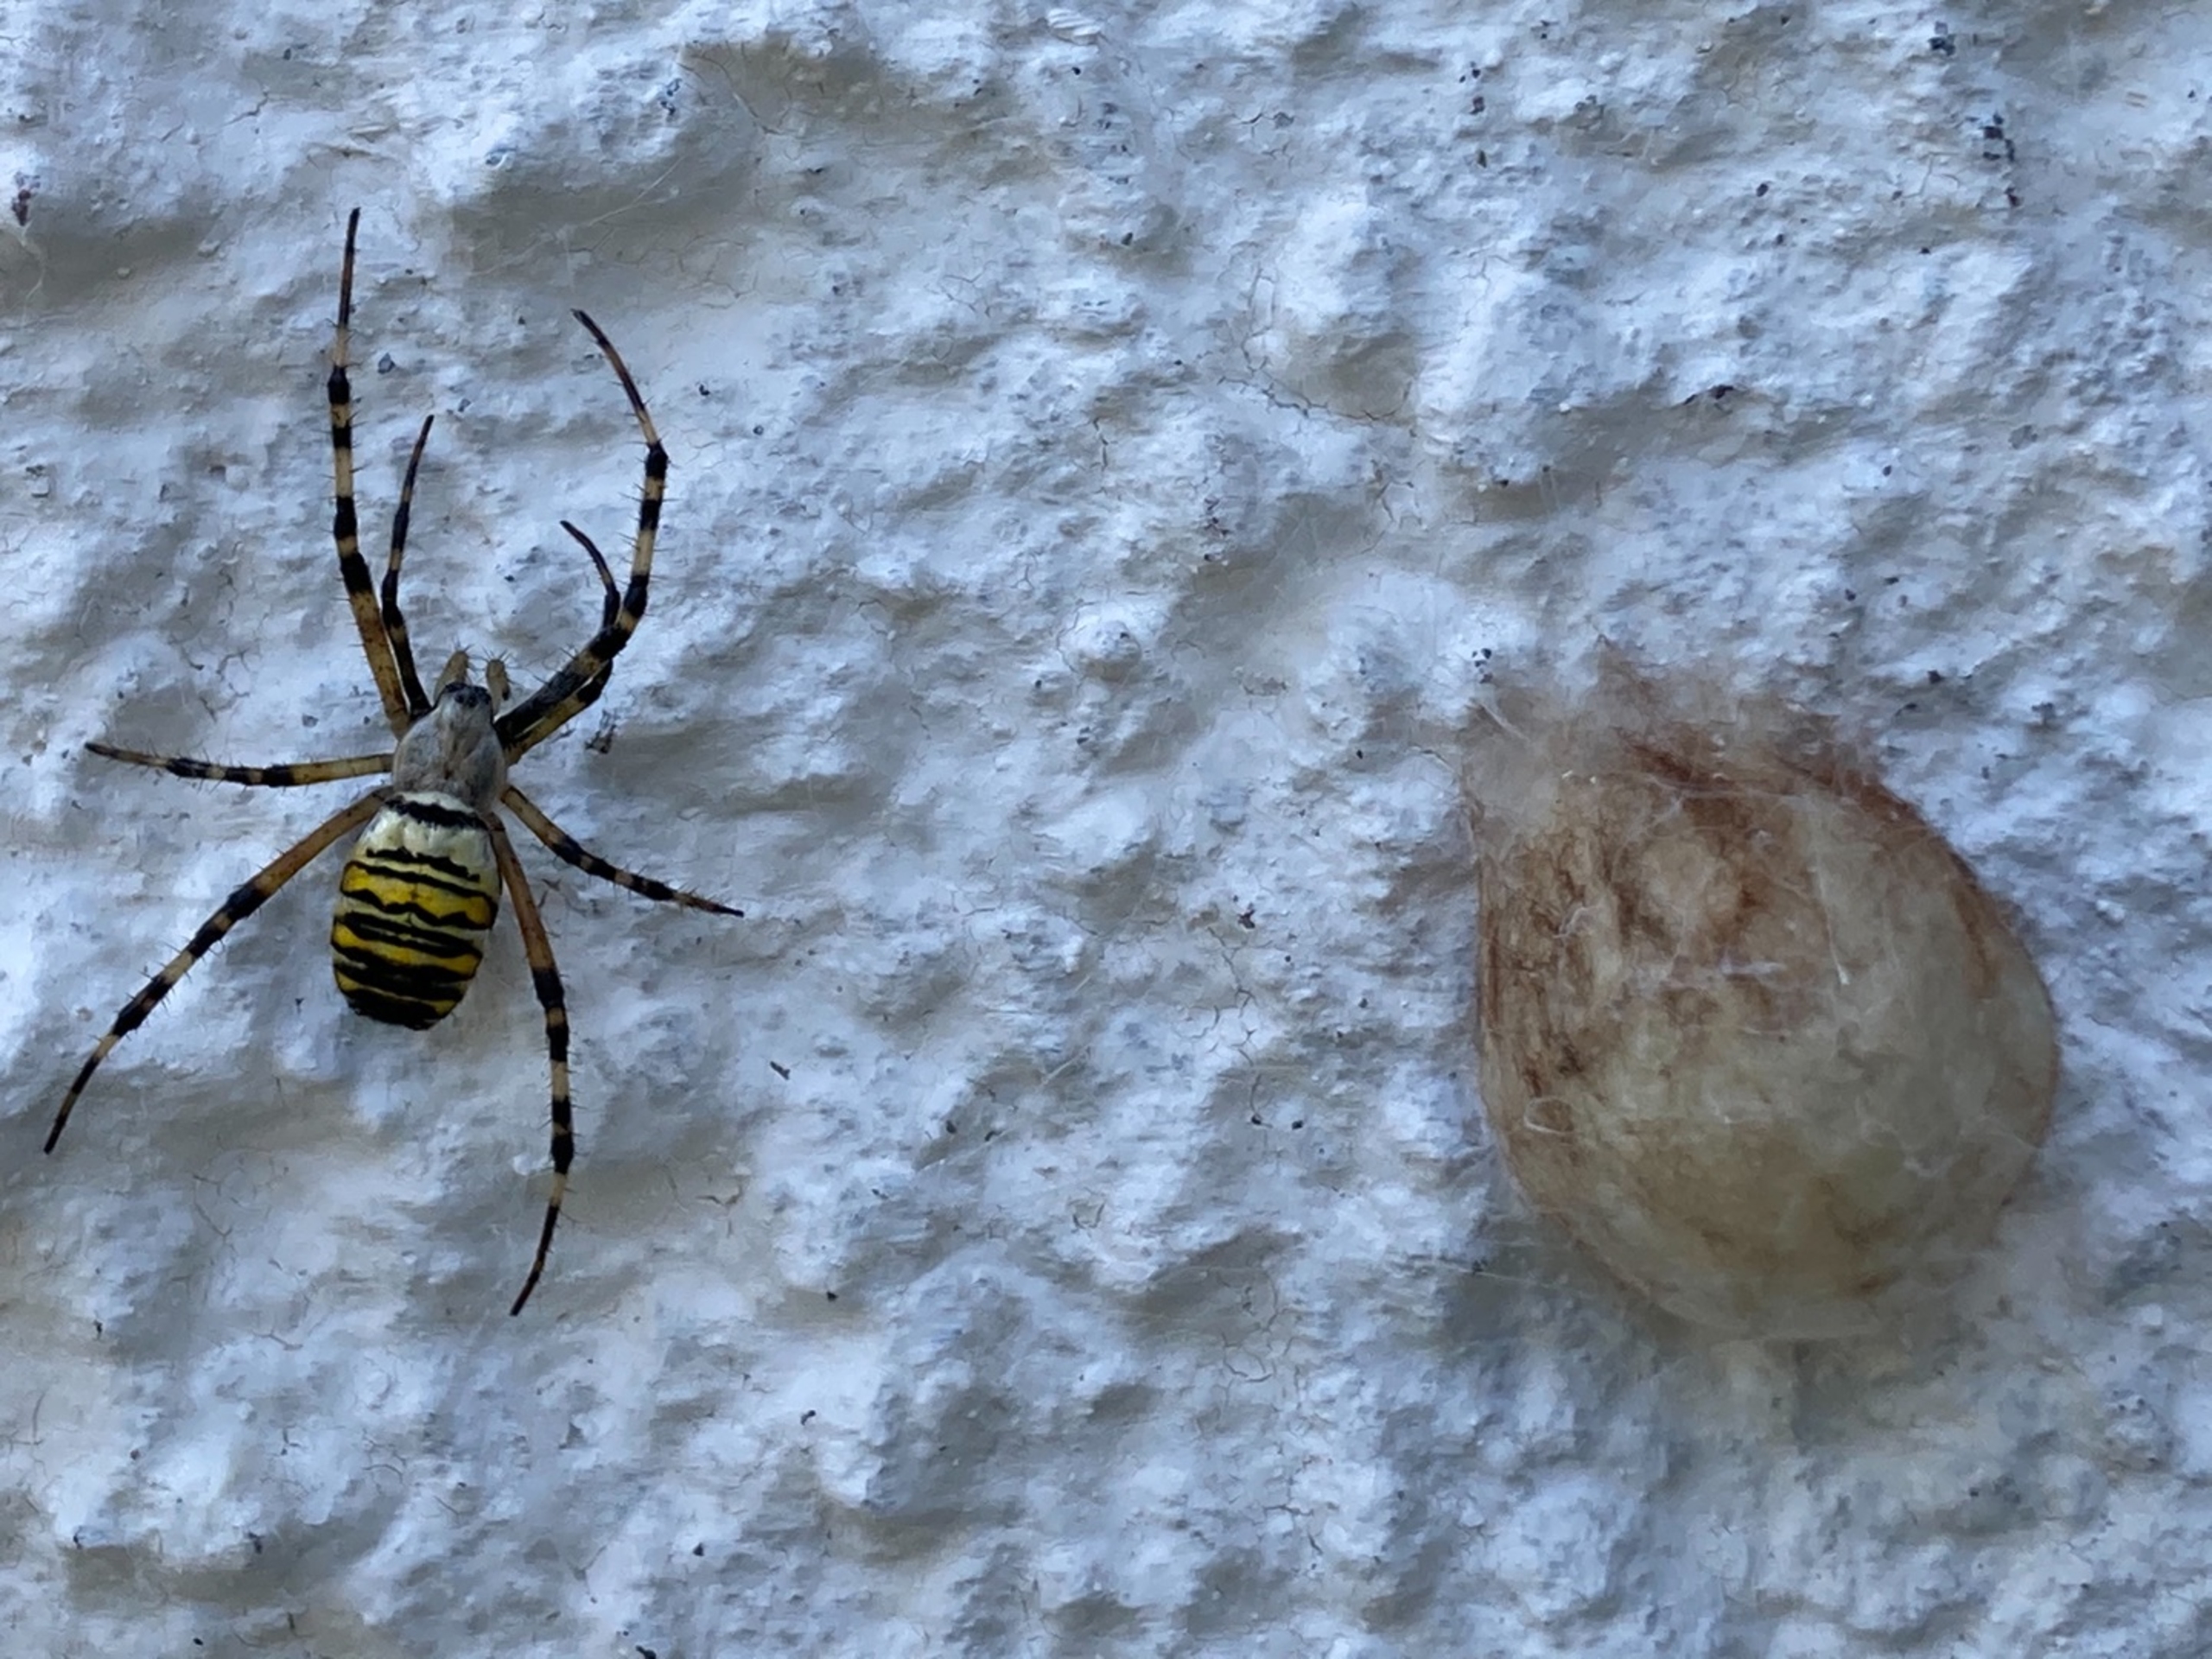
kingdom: Animalia
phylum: Arthropoda
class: Arachnida
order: Araneae
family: Araneidae
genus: Argiope
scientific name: Argiope bruennichi
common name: Hvepseedderkop
